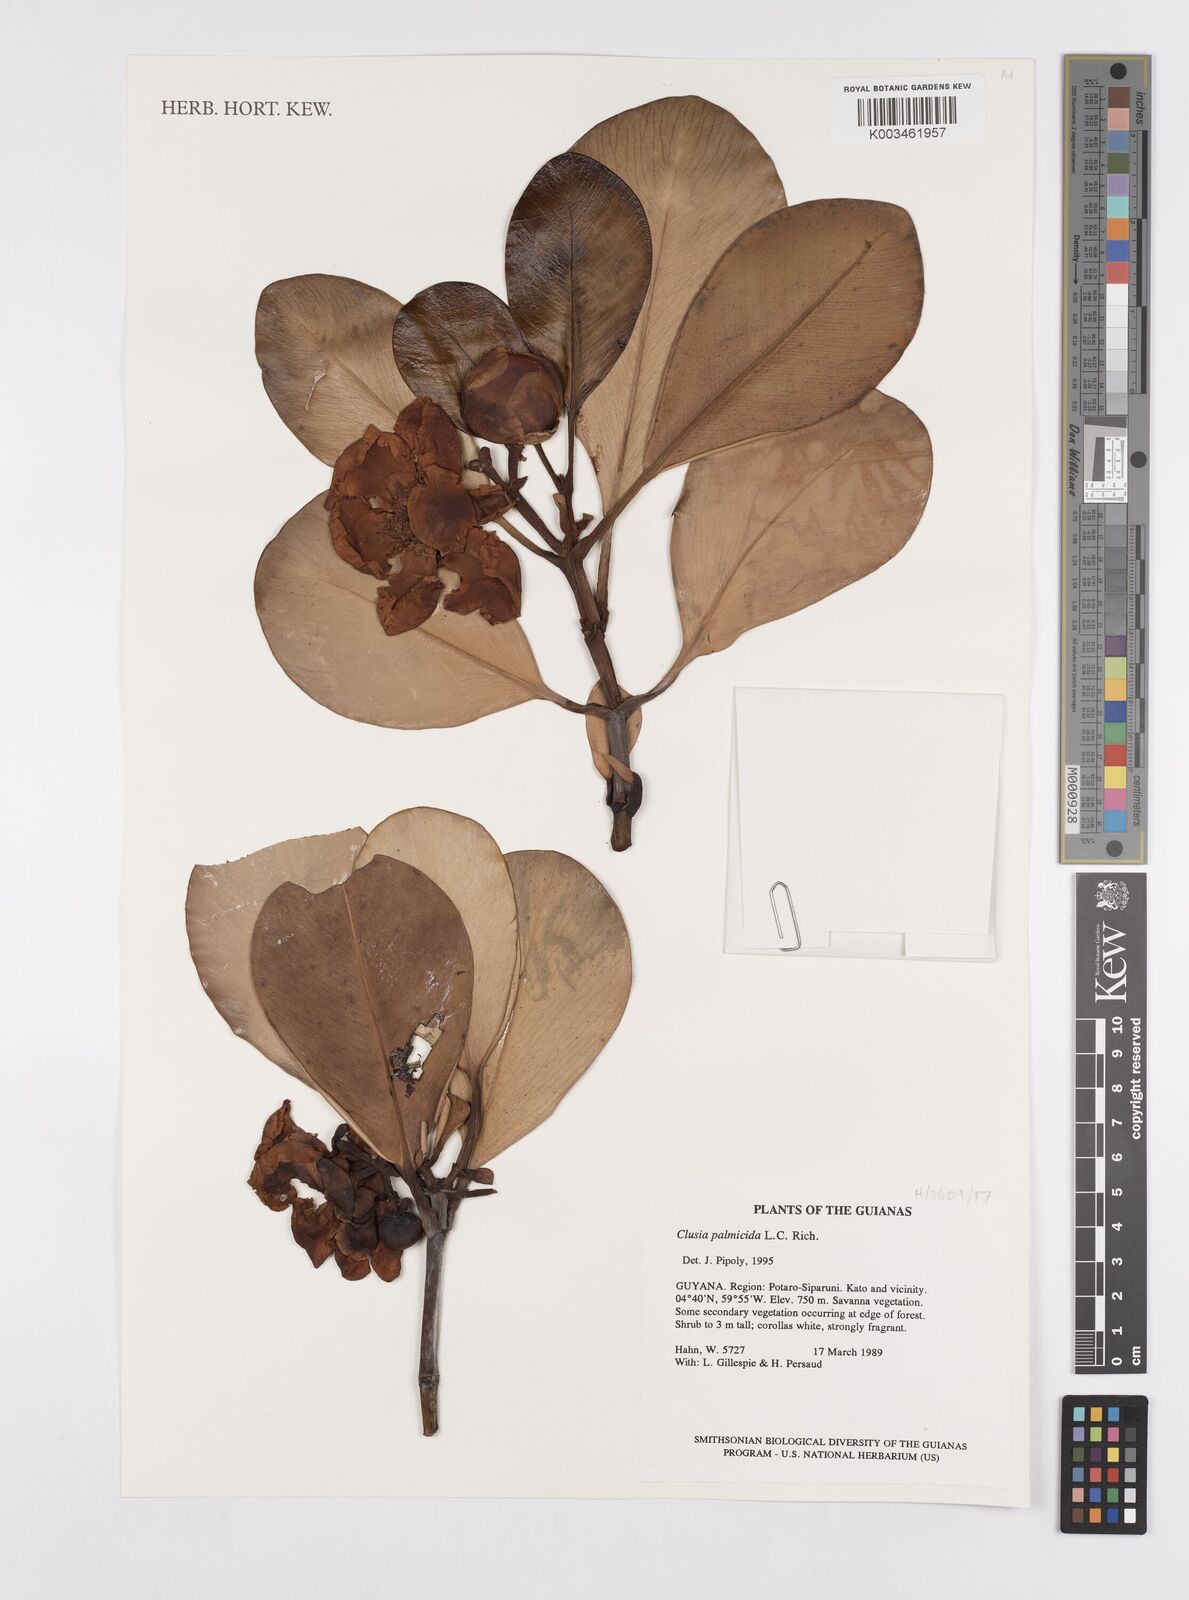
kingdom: Plantae
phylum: Tracheophyta
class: Magnoliopsida
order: Malpighiales
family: Clusiaceae
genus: Clusia
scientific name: Clusia palmicida
